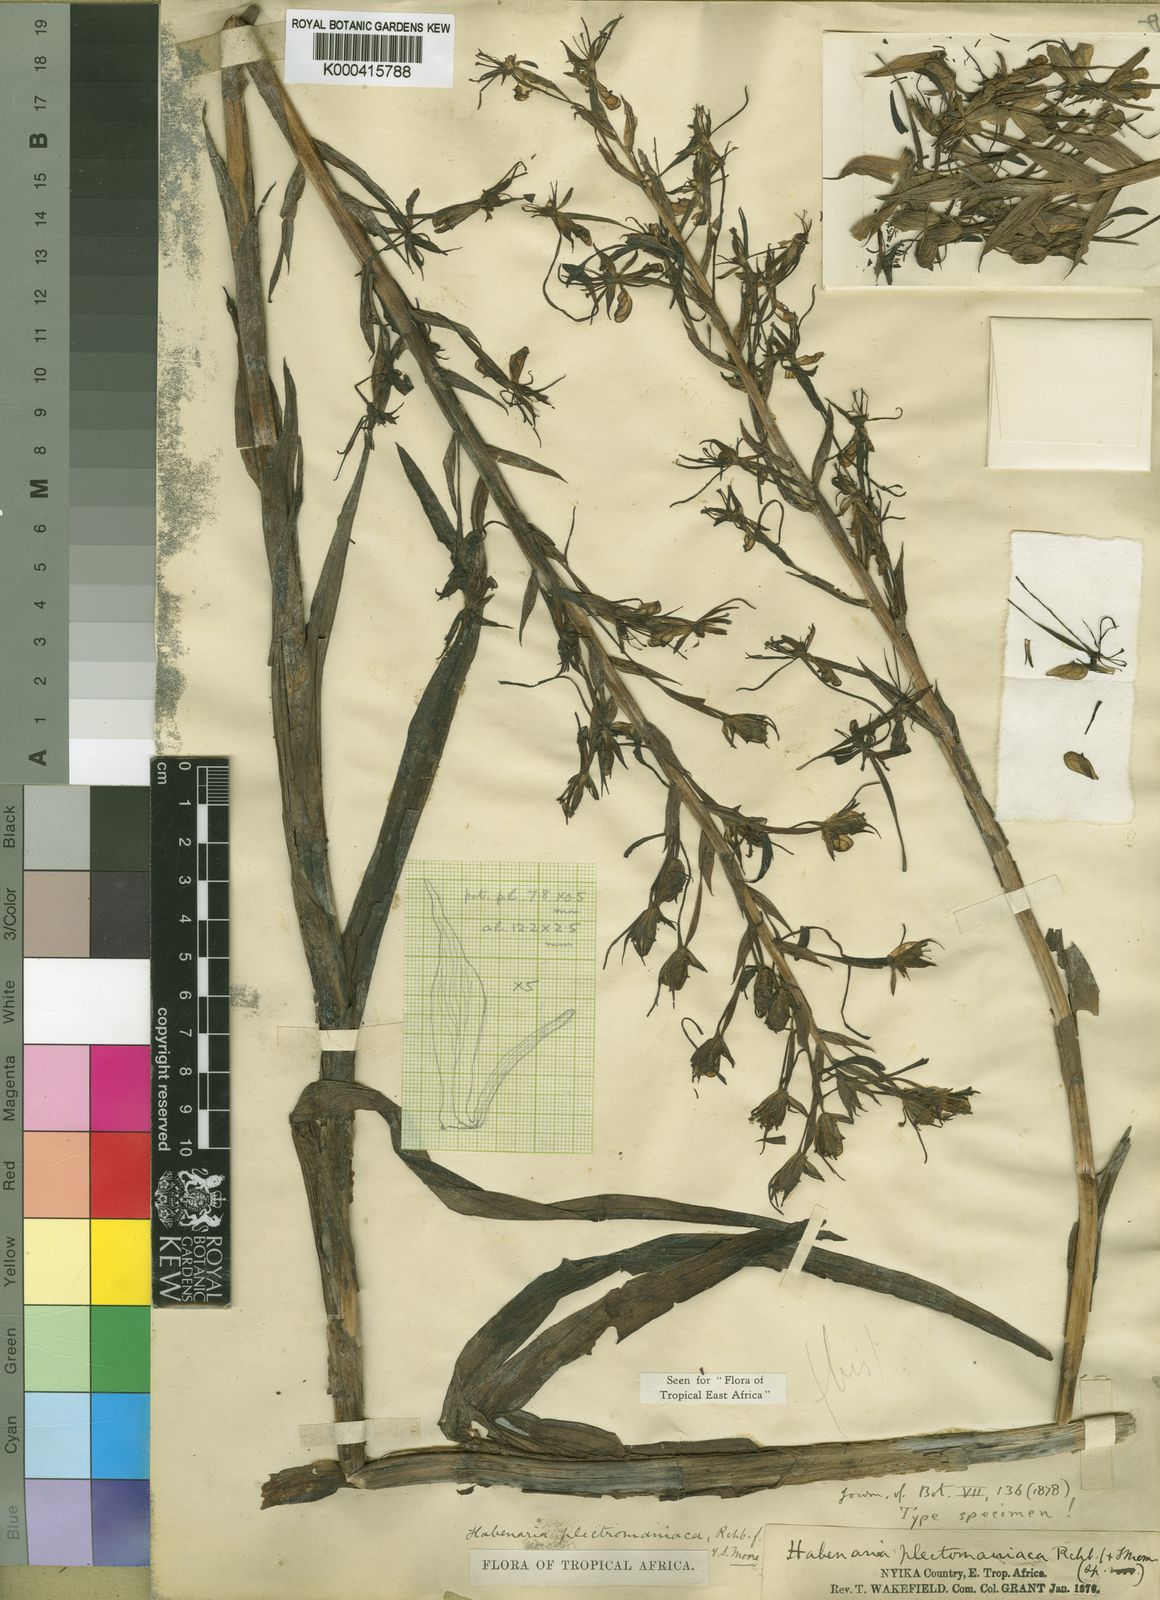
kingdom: Plantae
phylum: Tracheophyta
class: Liliopsida
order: Asparagales
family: Orchidaceae
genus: Habenaria
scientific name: Habenaria plectromaniaca
